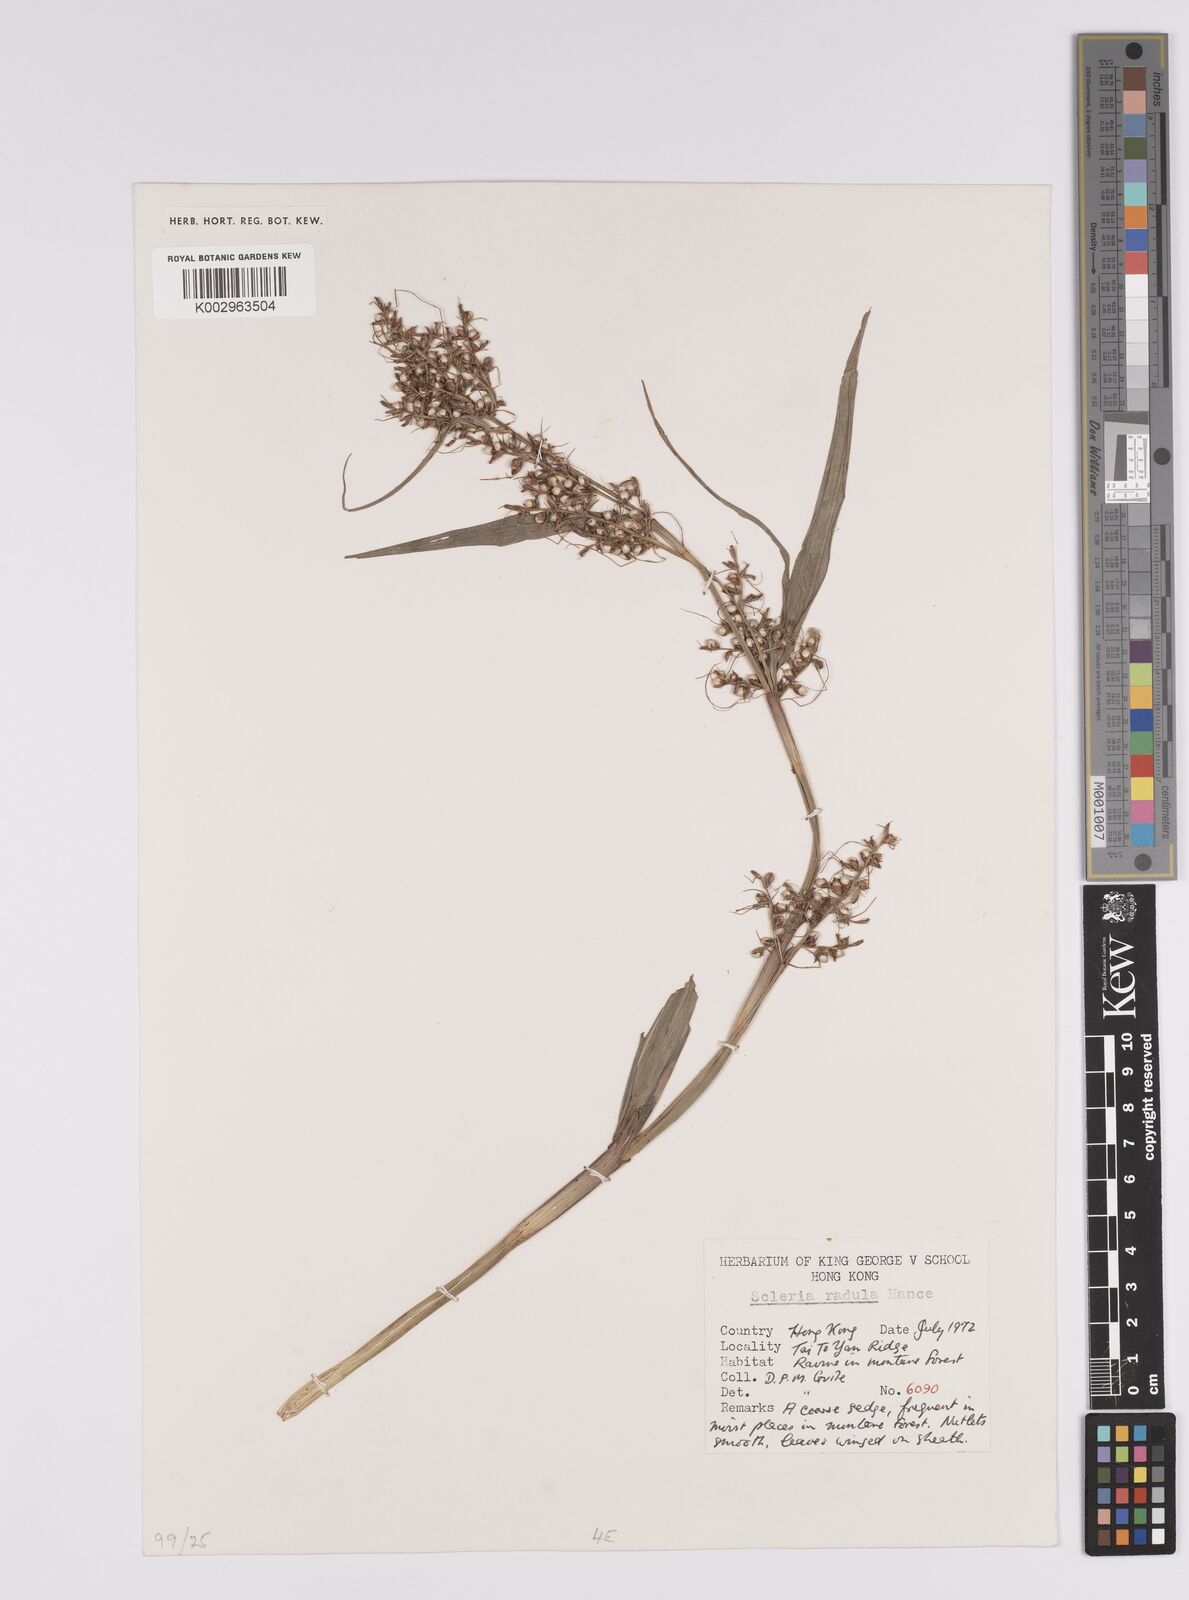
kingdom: Plantae
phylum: Tracheophyta
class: Liliopsida
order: Poales
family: Cyperaceae
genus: Scleria
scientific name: Scleria radula
